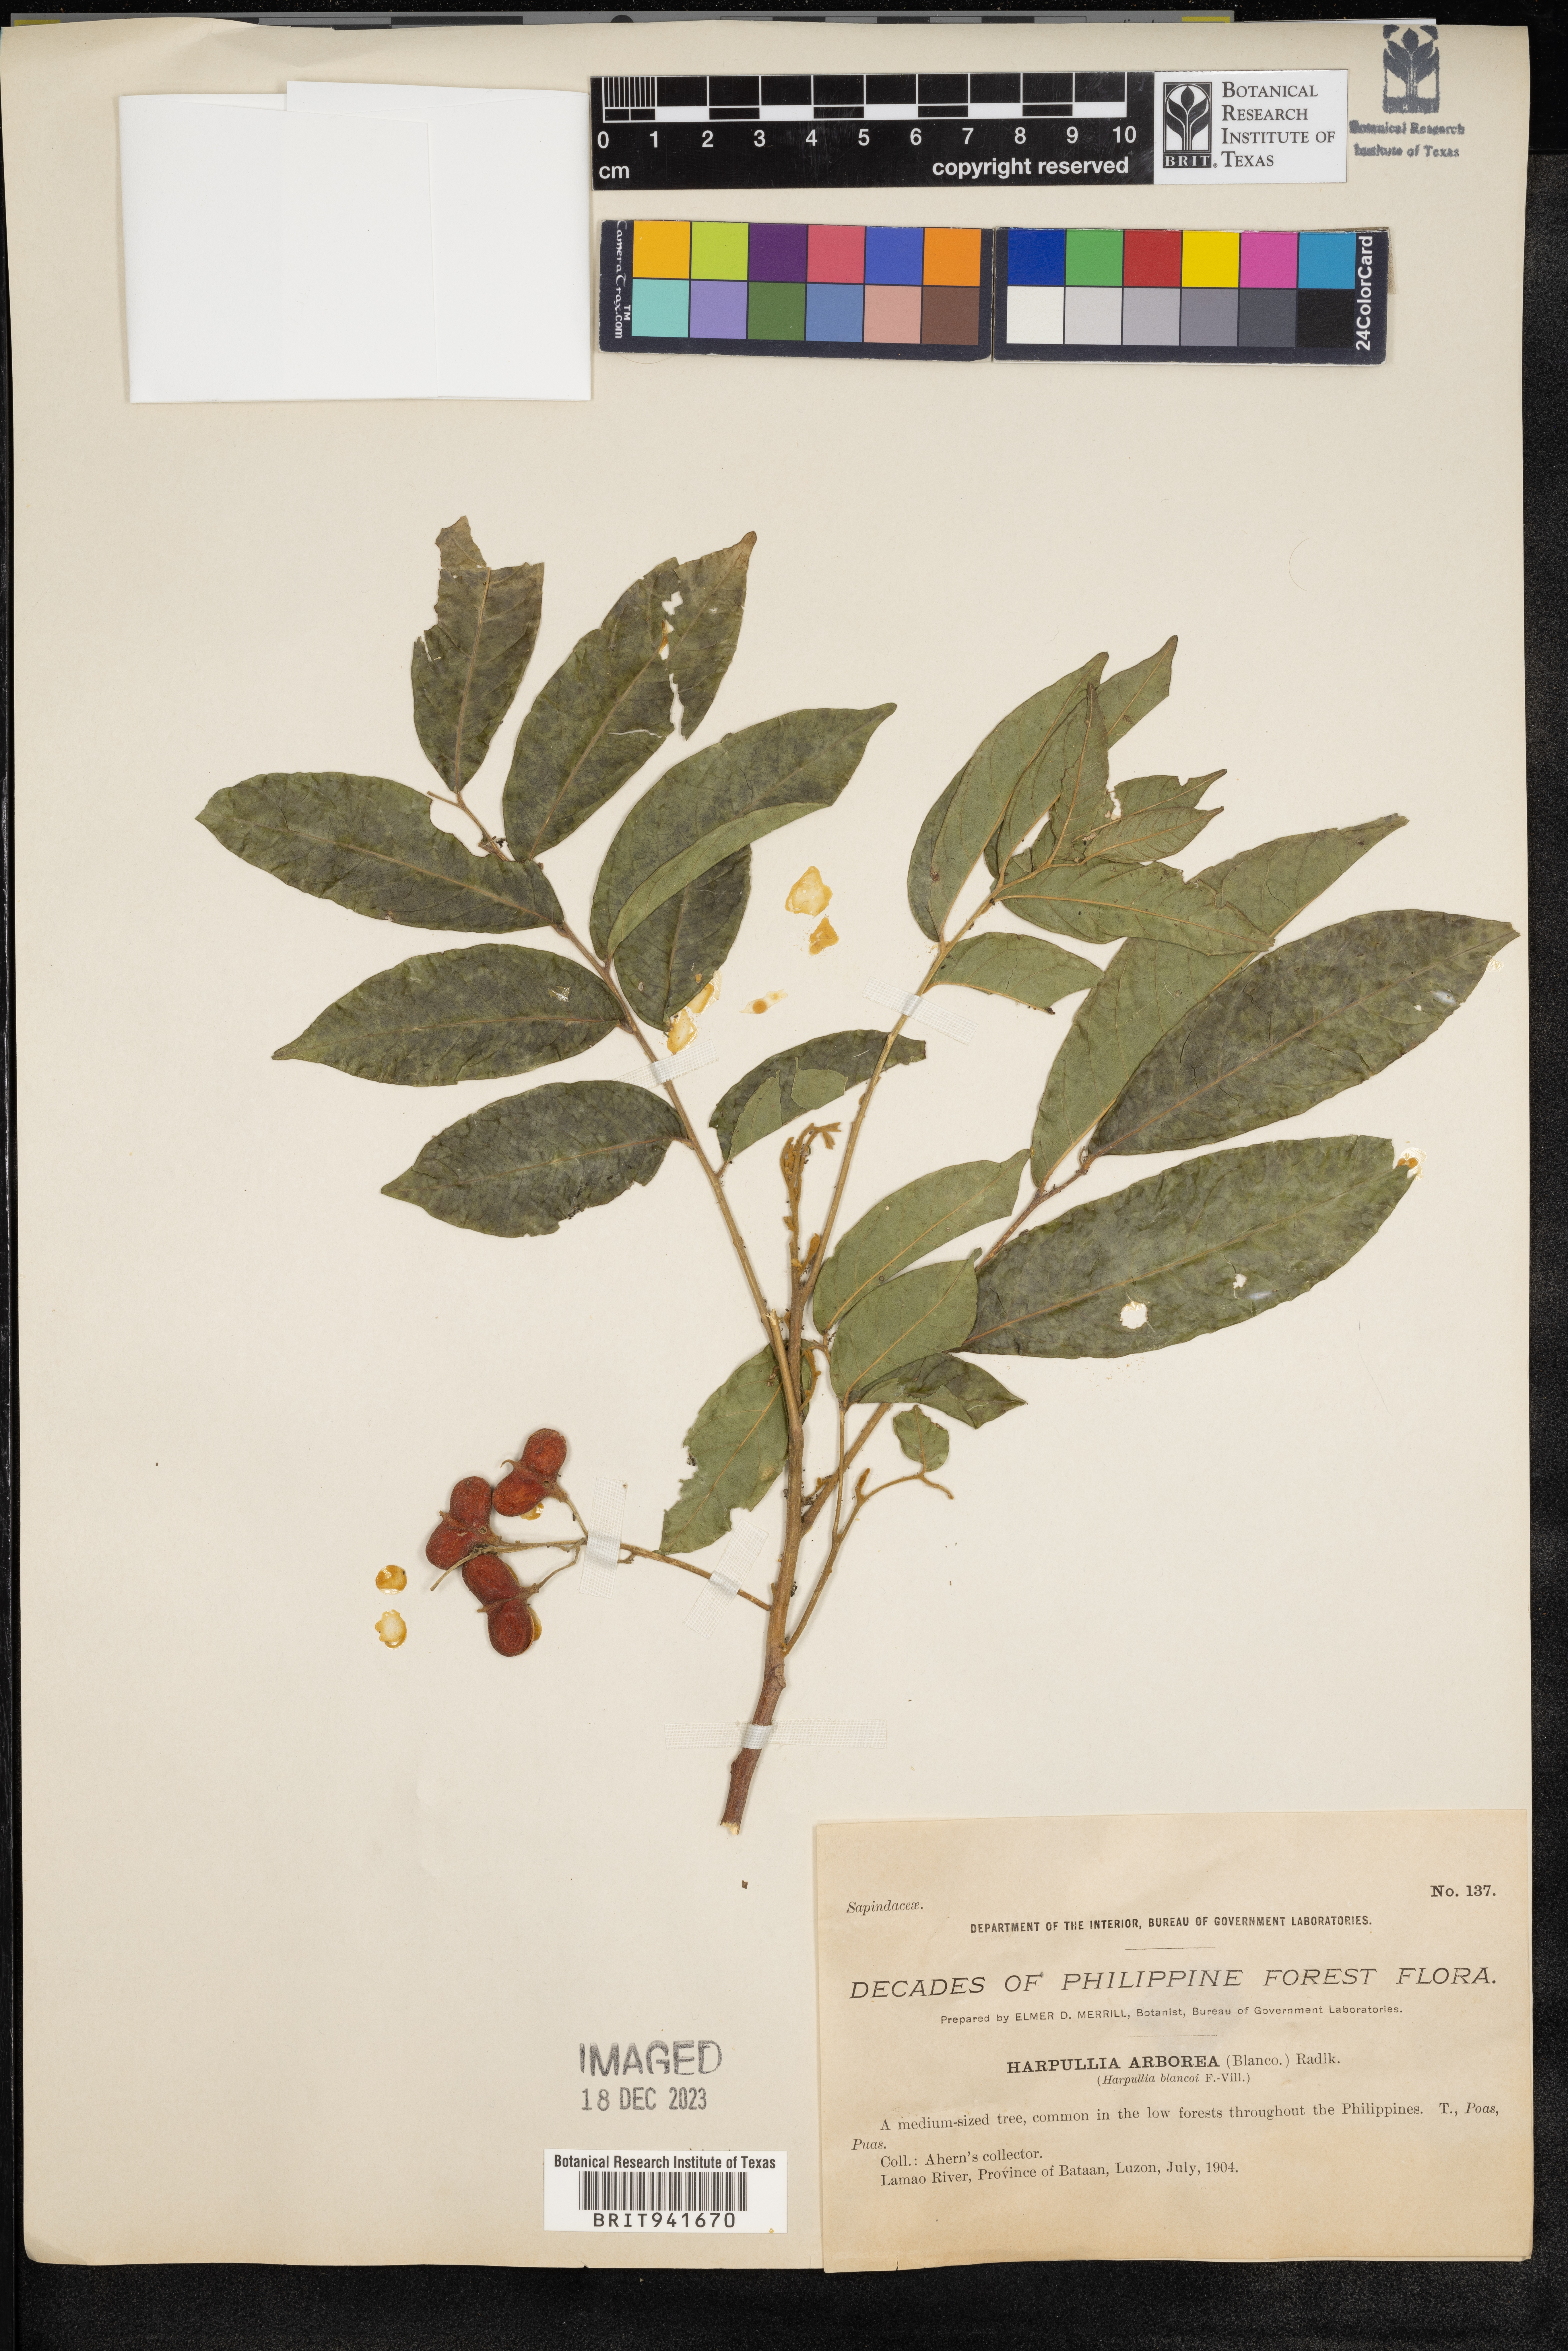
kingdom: Plantae
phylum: Tracheophyta
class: Magnoliopsida
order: Sapindales
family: Sapindaceae
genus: Harpullia
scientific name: Harpullia arborea
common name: Tulip-wood tree
